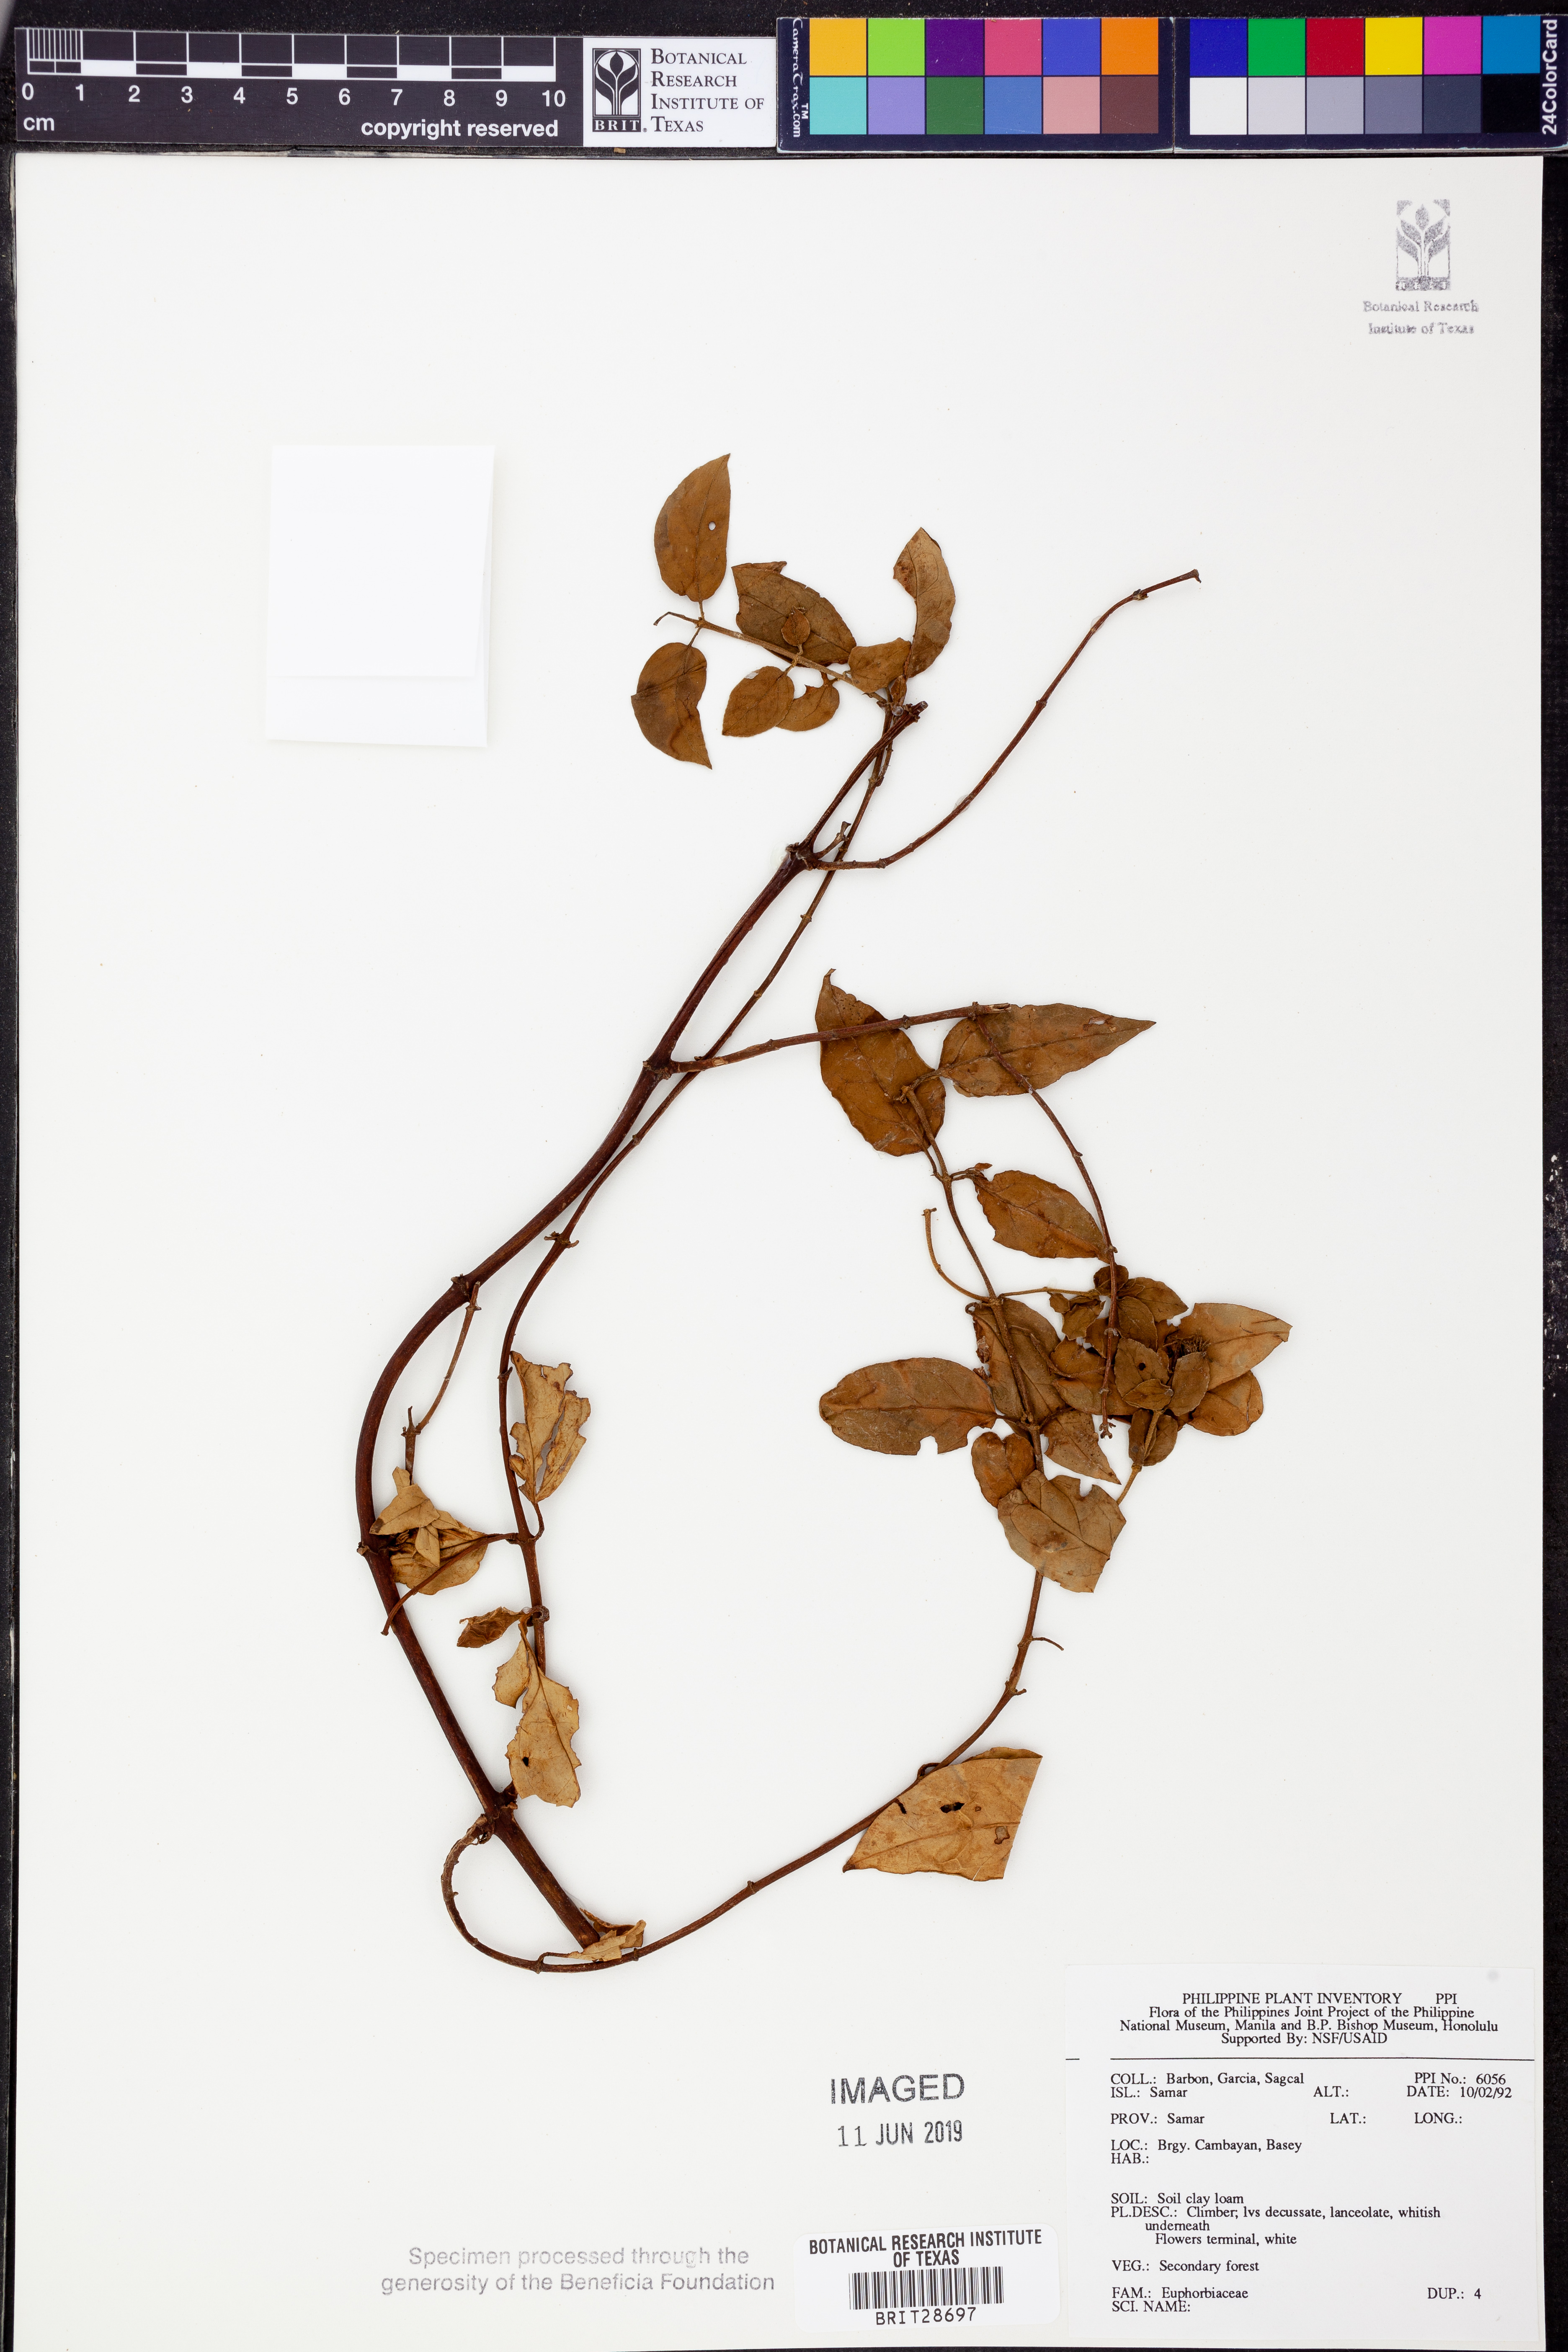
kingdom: Plantae
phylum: Tracheophyta
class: Magnoliopsida
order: Malpighiales
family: Euphorbiaceae
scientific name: Euphorbiaceae
